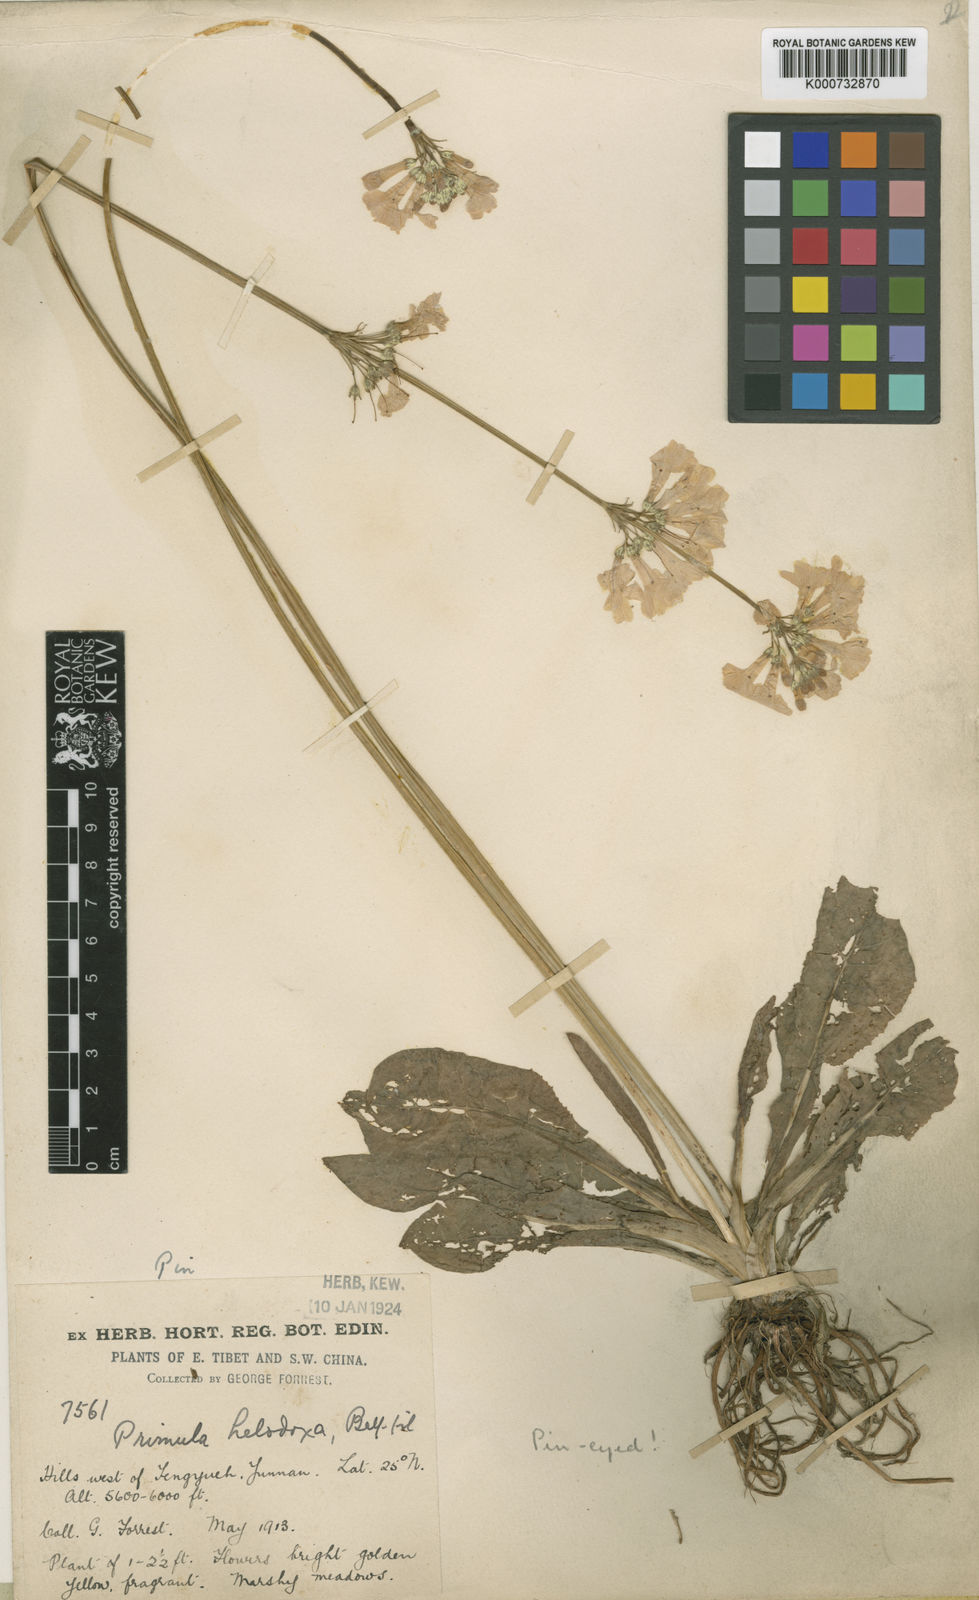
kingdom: Plantae
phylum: Tracheophyta
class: Magnoliopsida
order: Ericales
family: Primulaceae
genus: Primula
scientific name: Primula
